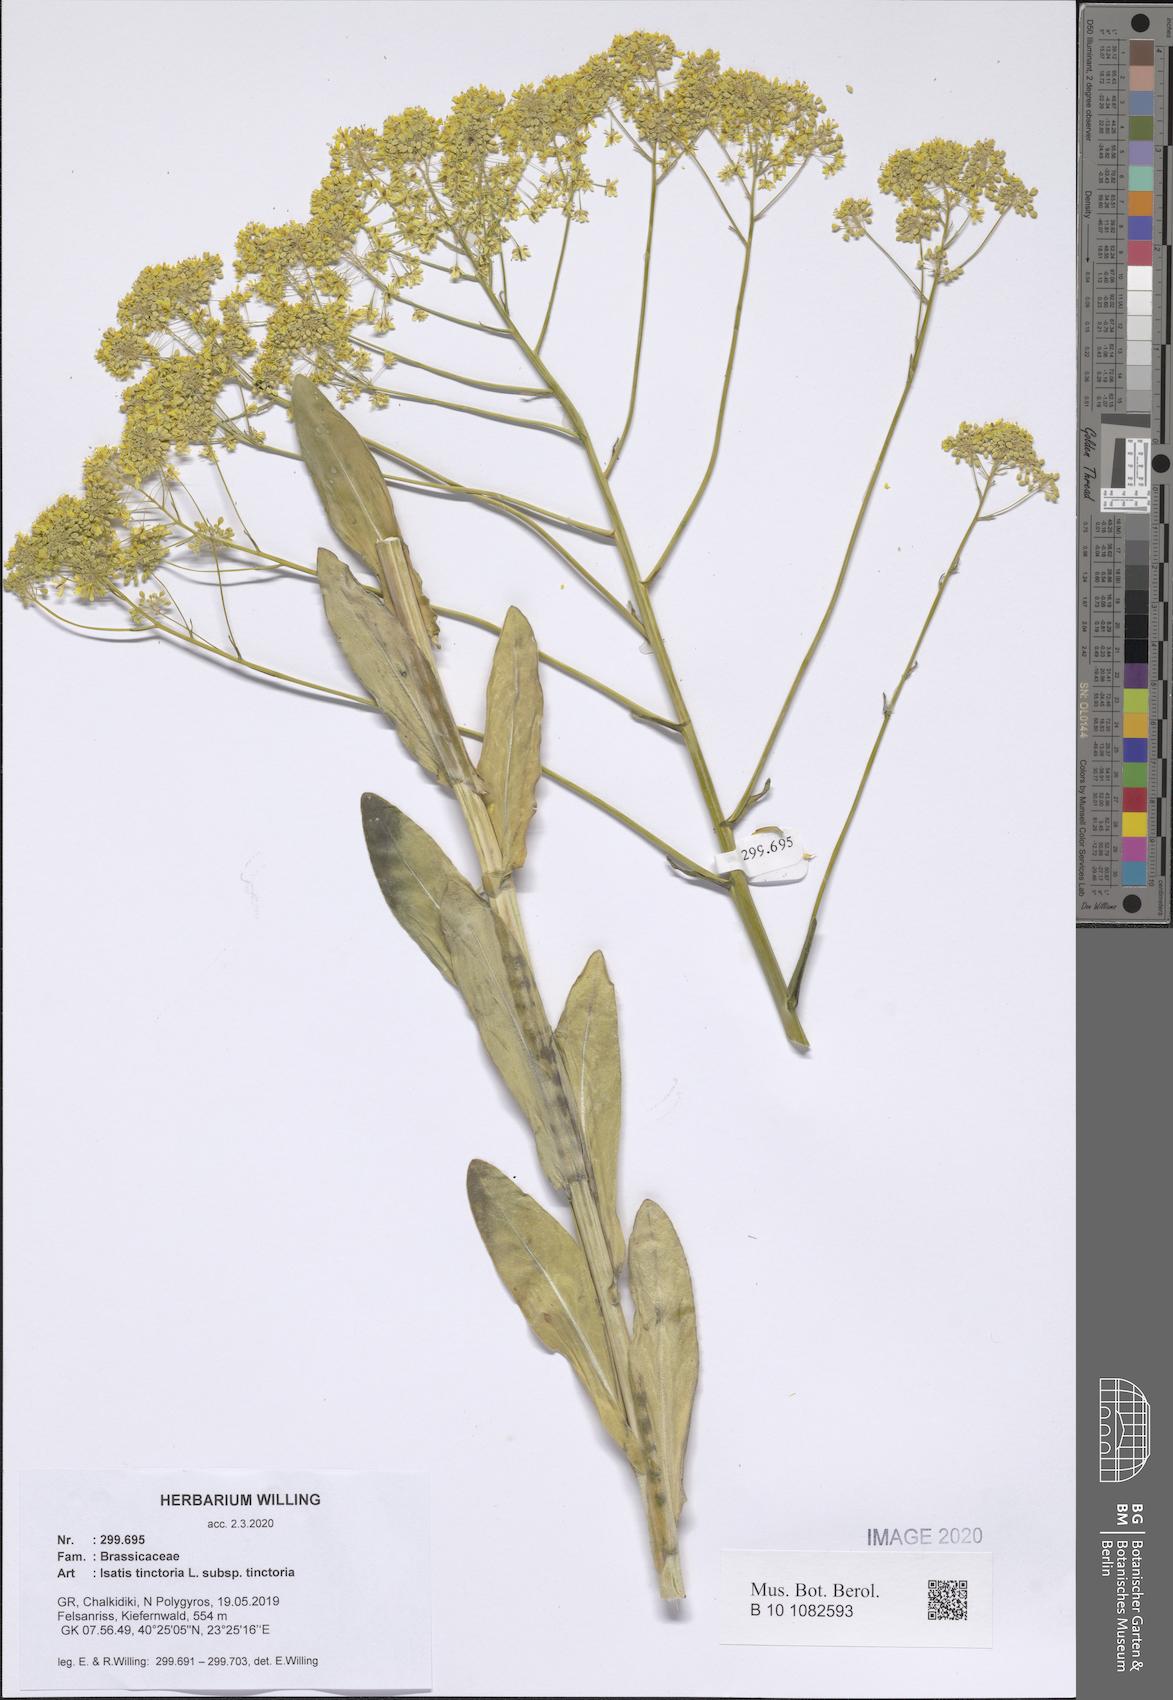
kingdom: Plantae
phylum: Tracheophyta
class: Magnoliopsida
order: Brassicales
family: Brassicaceae
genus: Isatis
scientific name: Isatis tinctoria
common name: Woad
